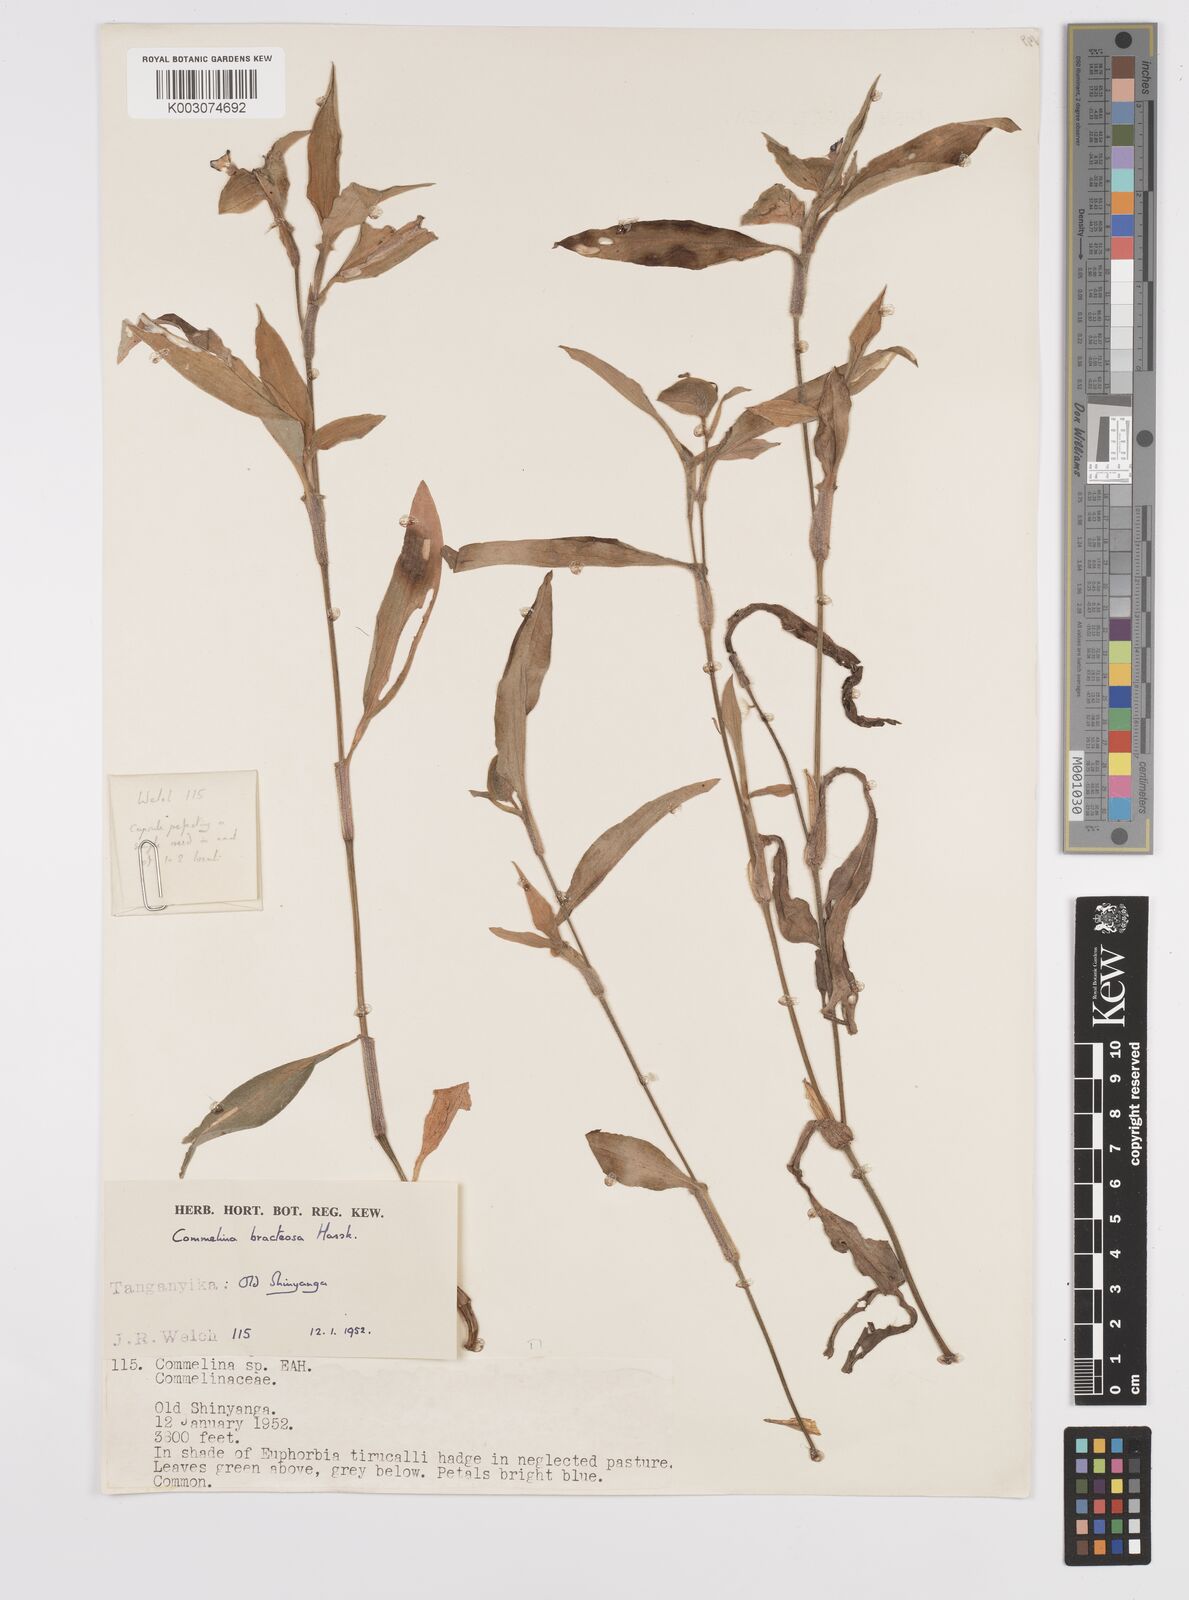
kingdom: Plantae
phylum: Tracheophyta
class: Liliopsida
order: Commelinales
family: Commelinaceae
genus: Commelina
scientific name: Commelina bracteosa
